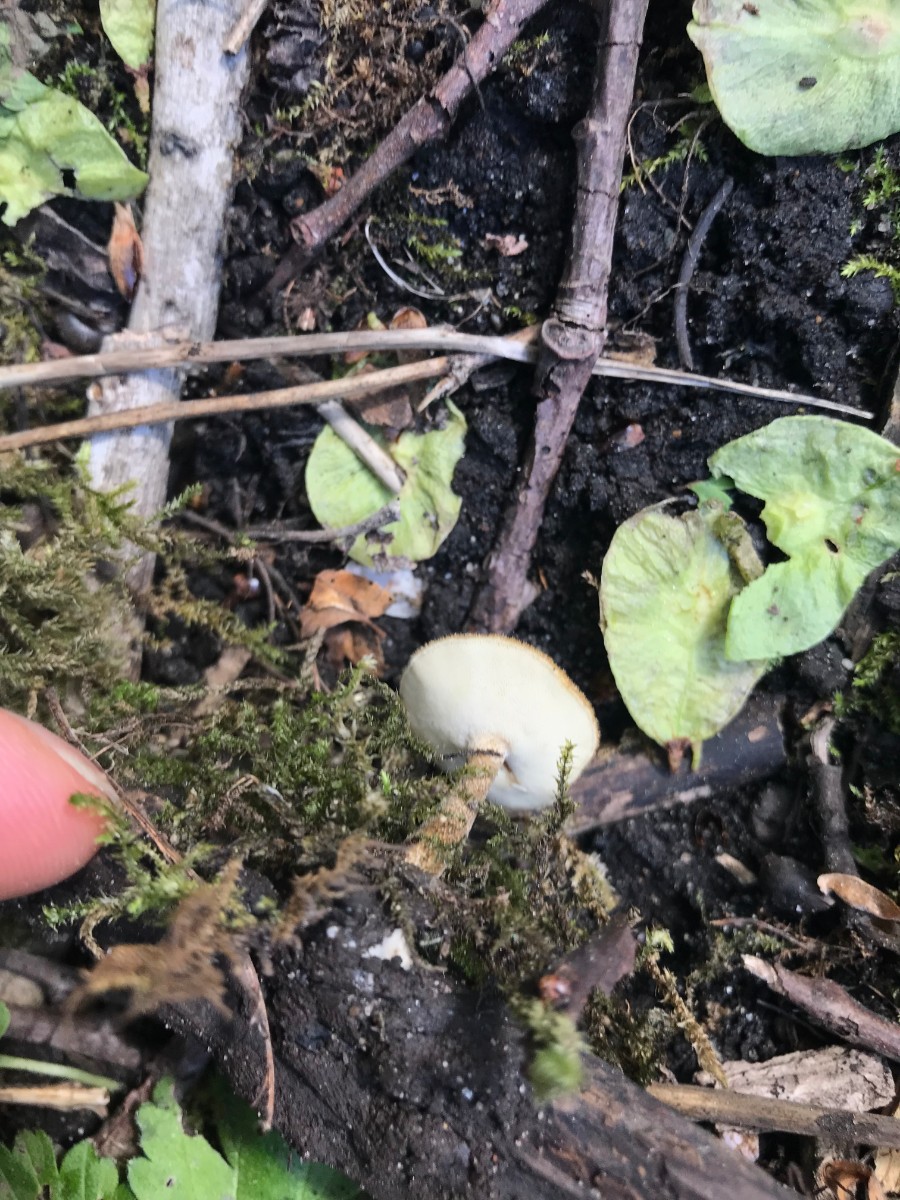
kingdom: Fungi
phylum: Basidiomycota
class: Agaricomycetes
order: Polyporales
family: Polyporaceae
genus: Lentinus
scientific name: Lentinus substrictus
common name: forårs-stilkporesvamp
